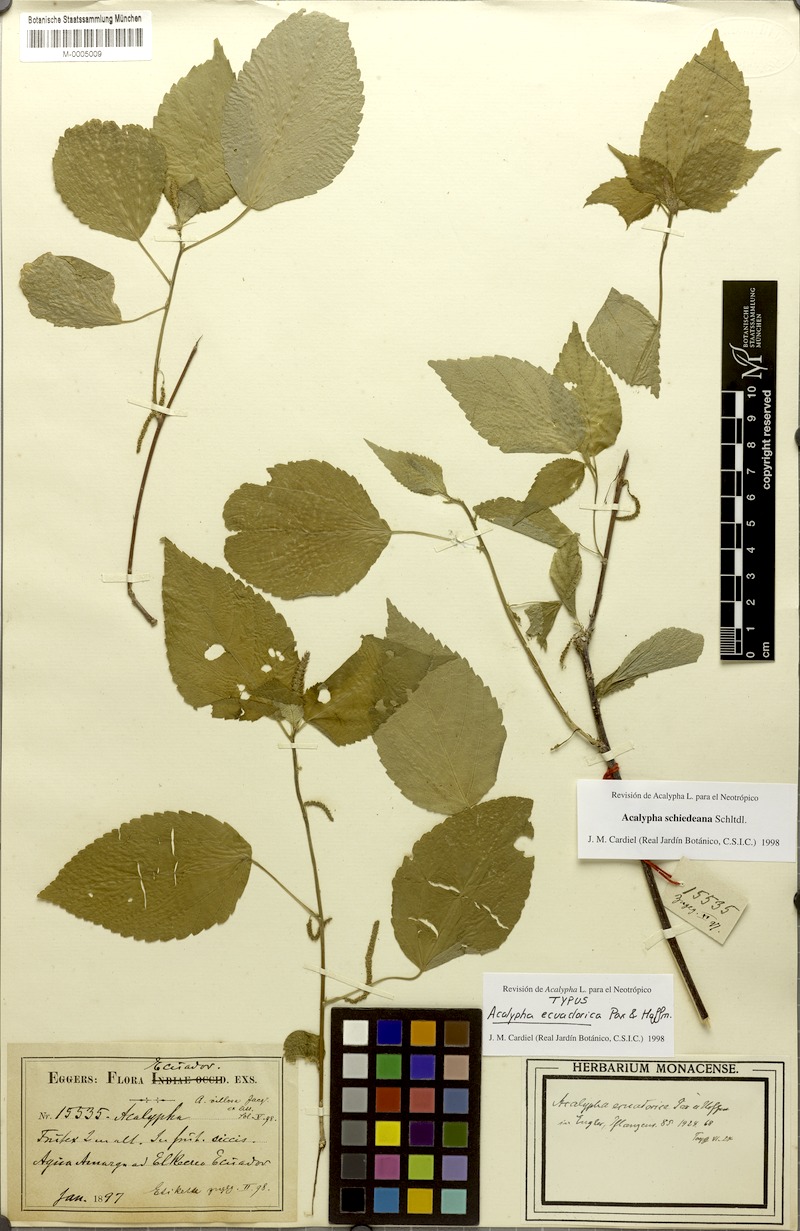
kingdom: Plantae
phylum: Tracheophyta
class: Magnoliopsida
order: Malpighiales
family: Euphorbiaceae
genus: Acalypha
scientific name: Acalypha schiedeana
